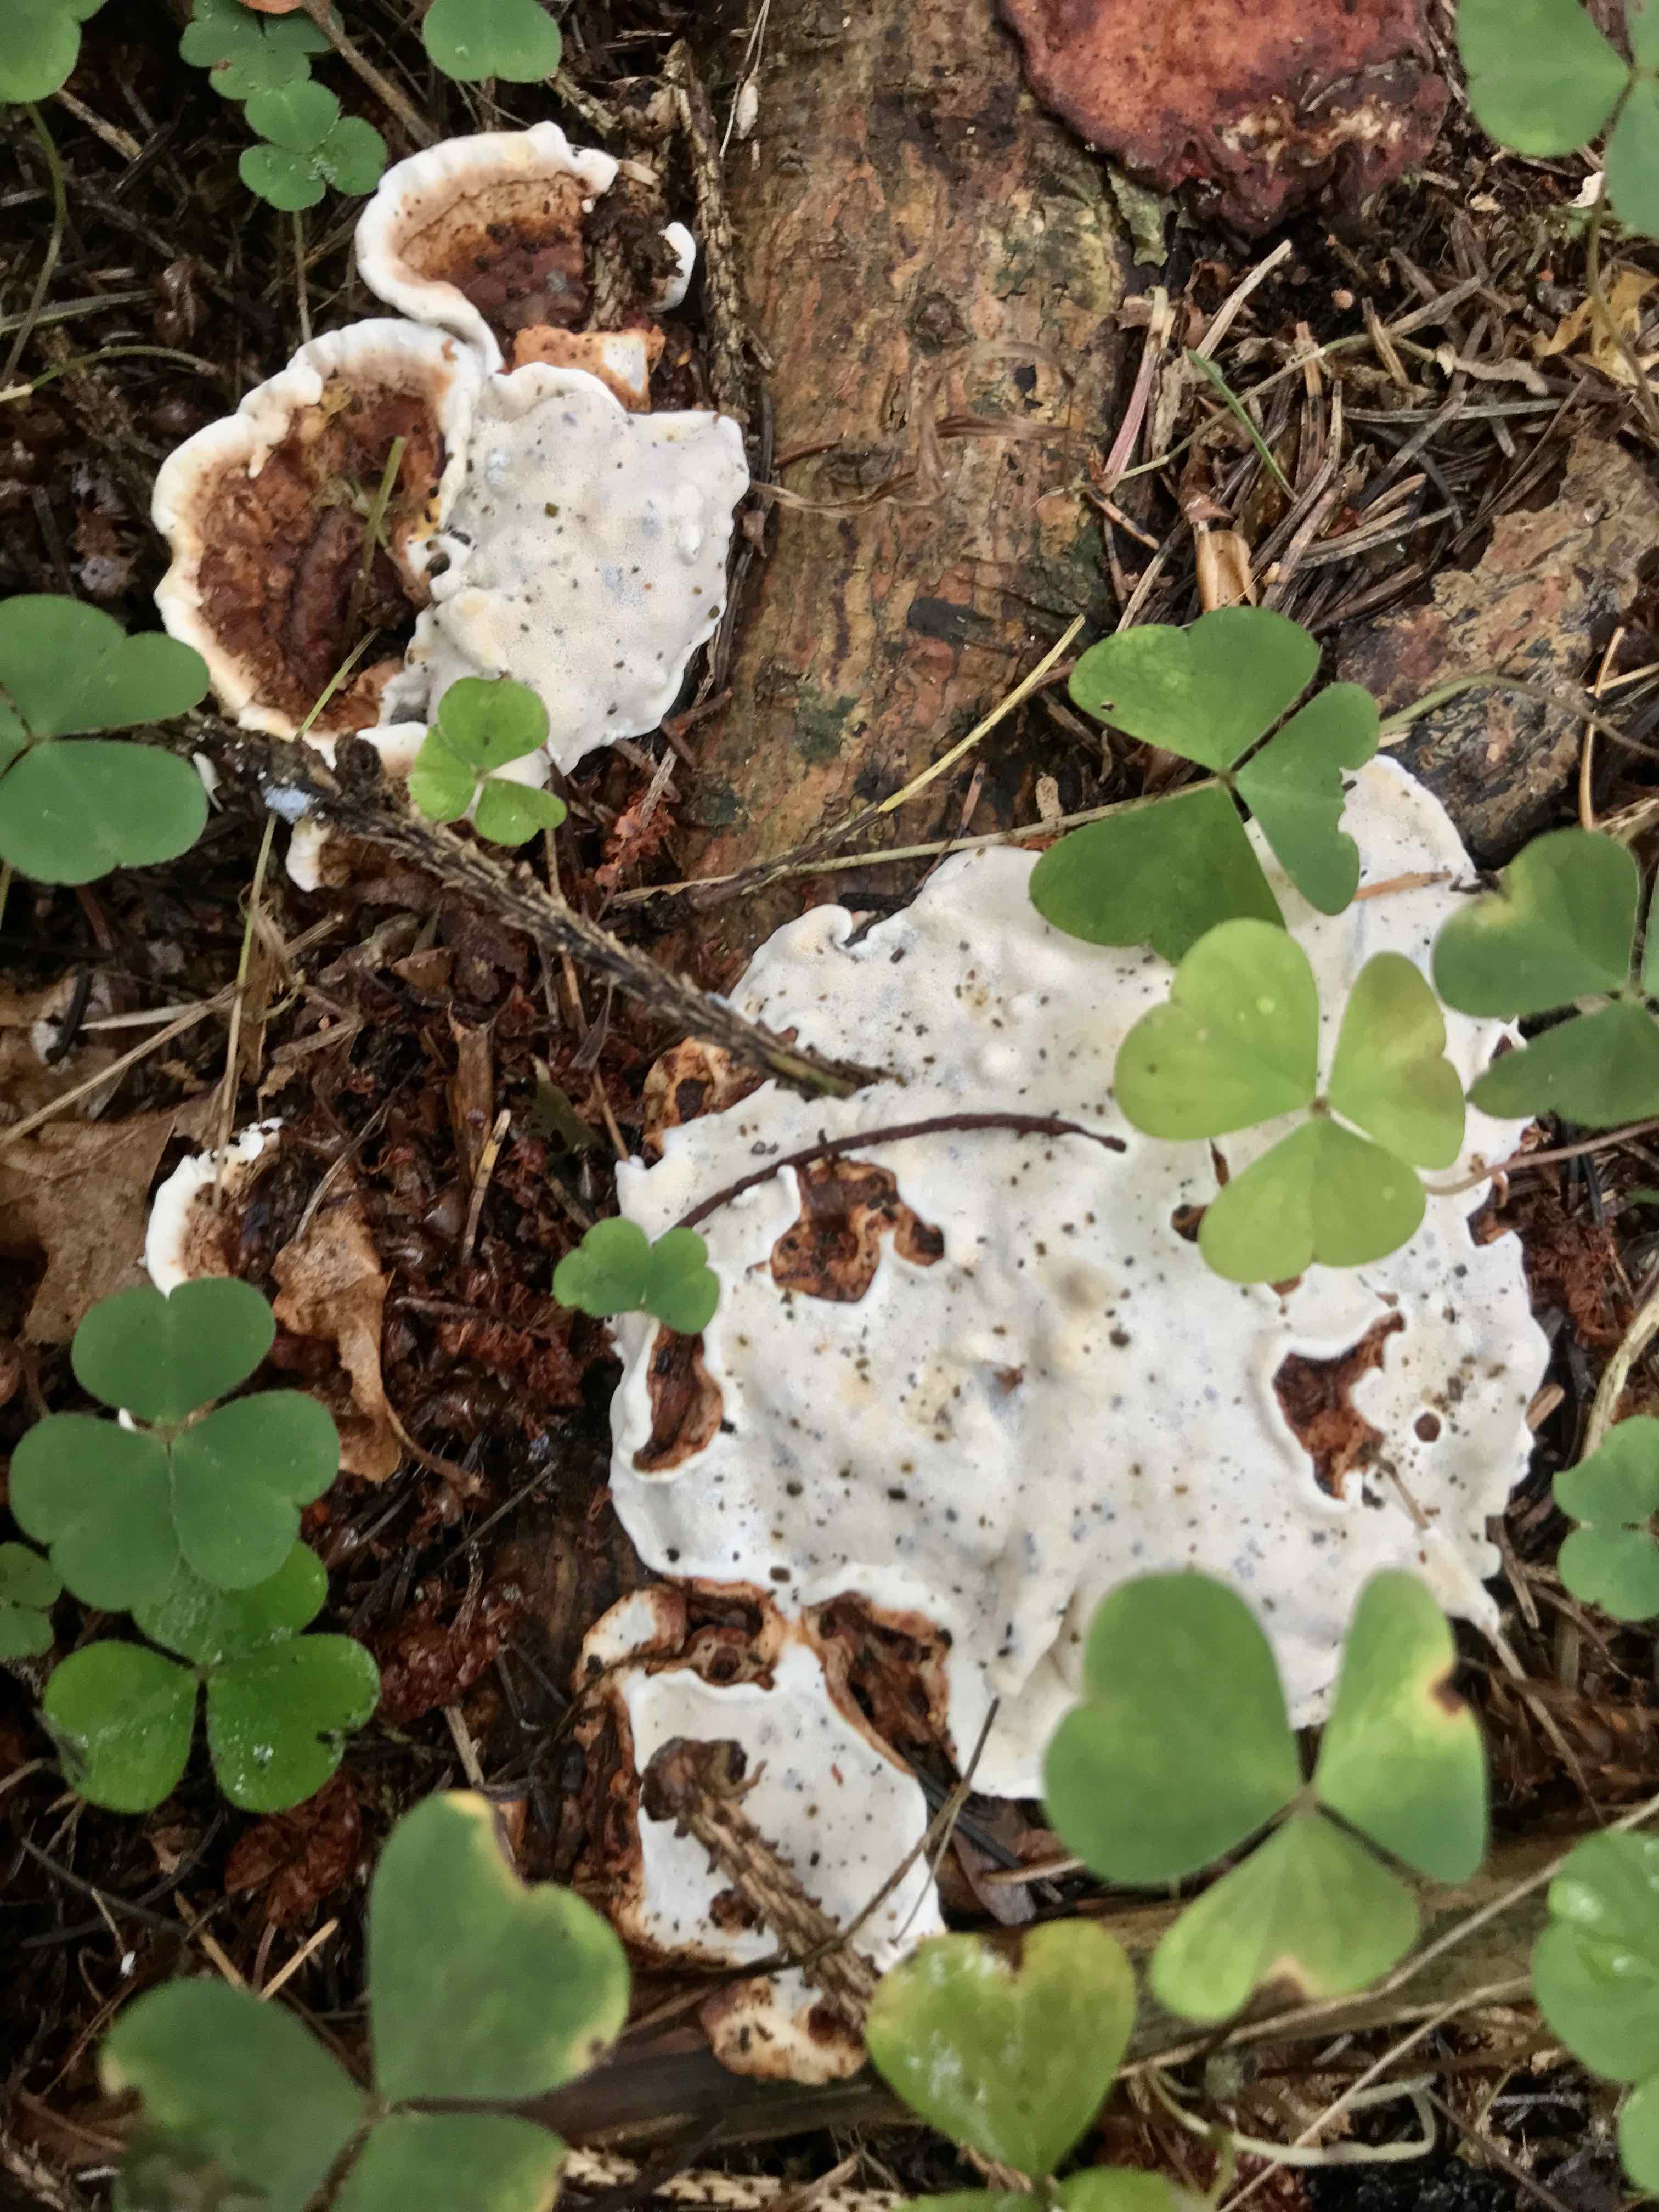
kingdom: Fungi
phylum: Basidiomycota
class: Agaricomycetes
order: Russulales
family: Bondarzewiaceae
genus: Heterobasidion
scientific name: Heterobasidion annosum
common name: almindelig rodfordærver
